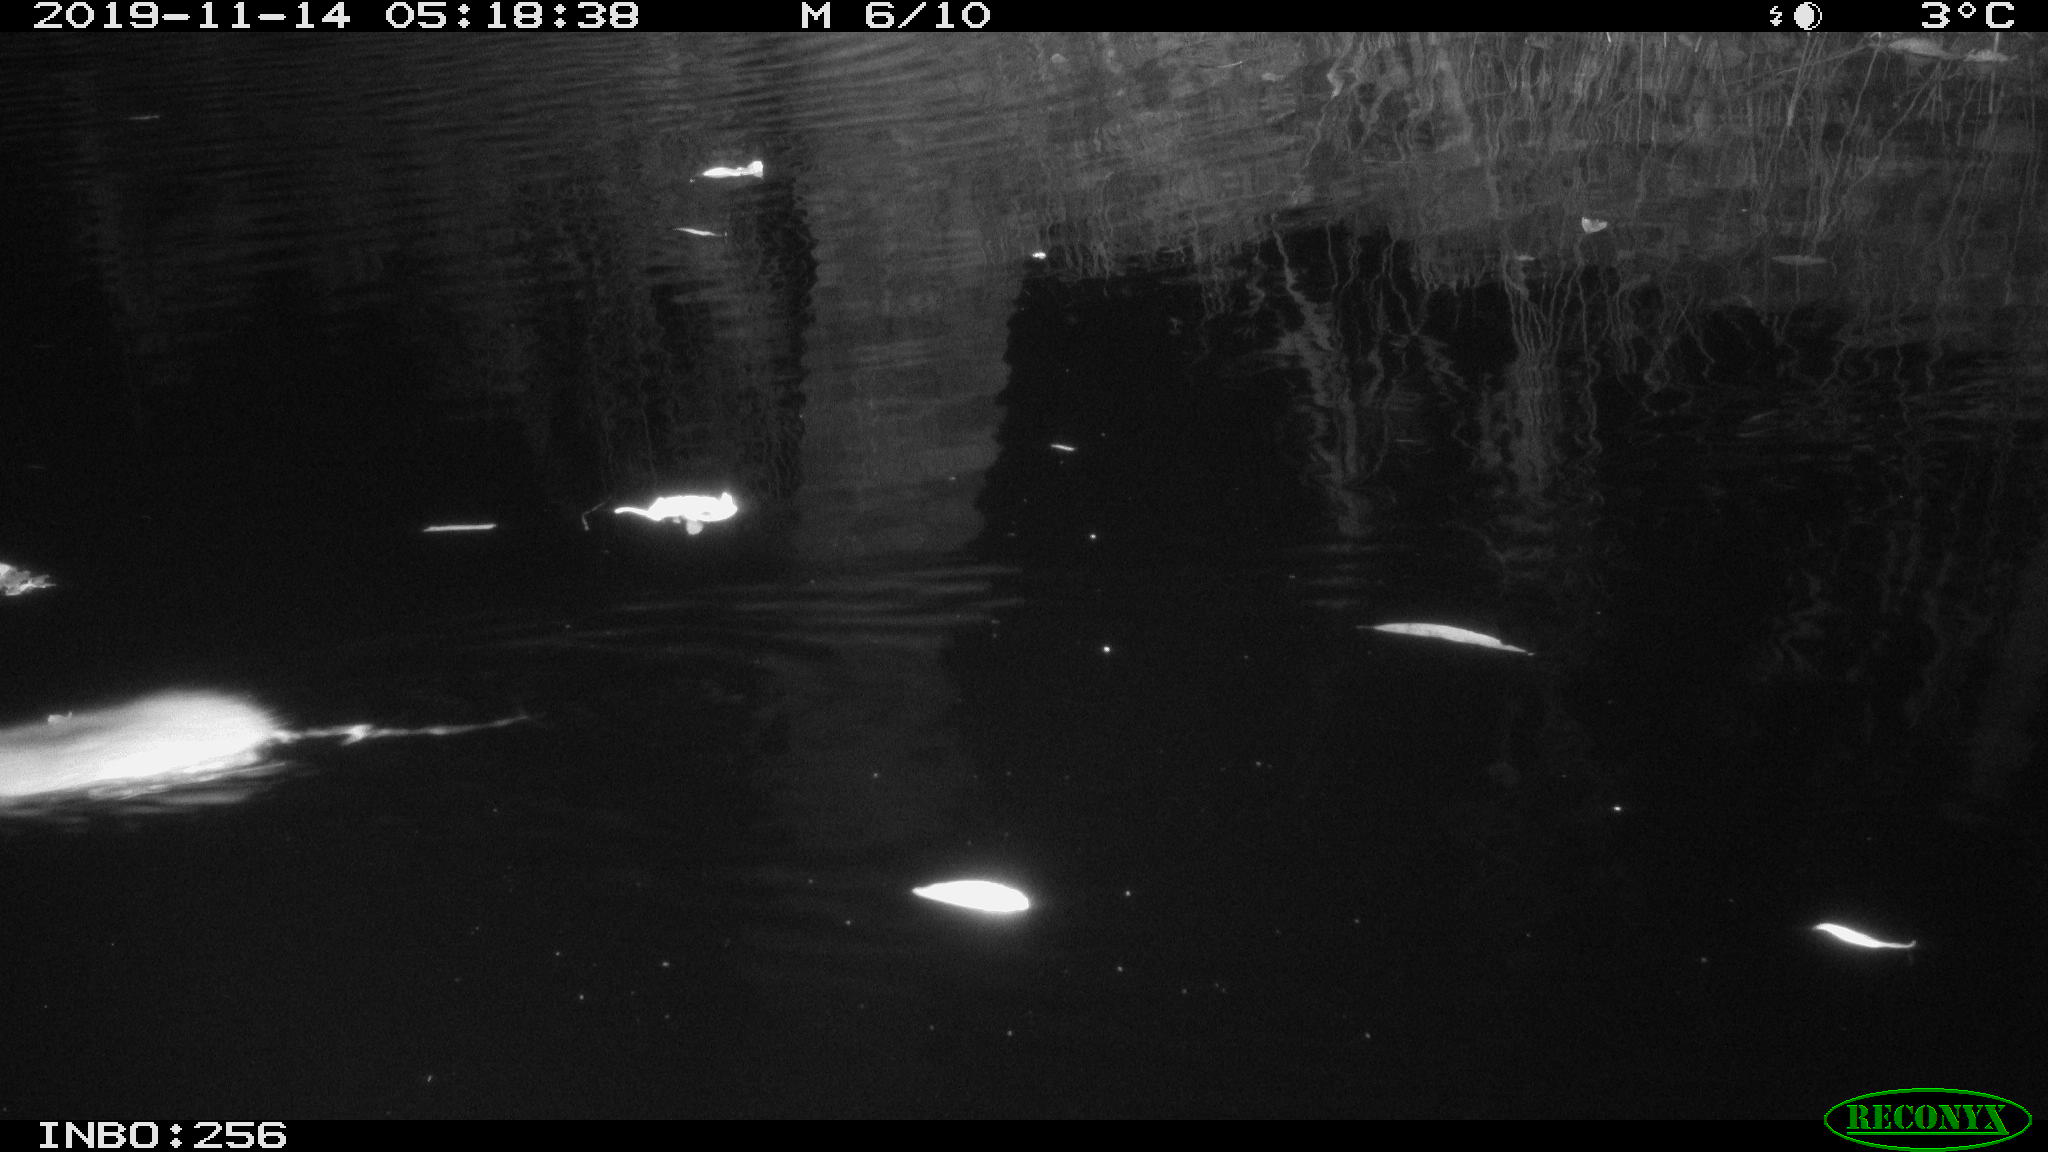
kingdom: Animalia
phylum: Chordata
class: Mammalia
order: Rodentia
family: Muridae
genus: Rattus
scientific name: Rattus norvegicus
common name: Brown rat
